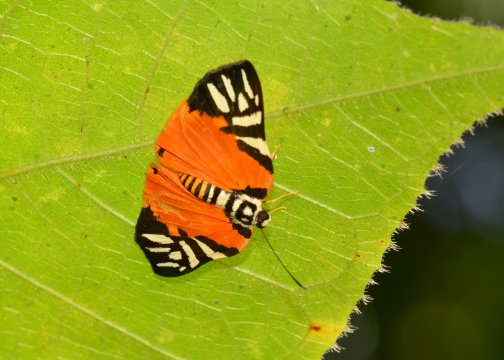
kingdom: Animalia
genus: Symmachia
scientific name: Symmachia rubina
